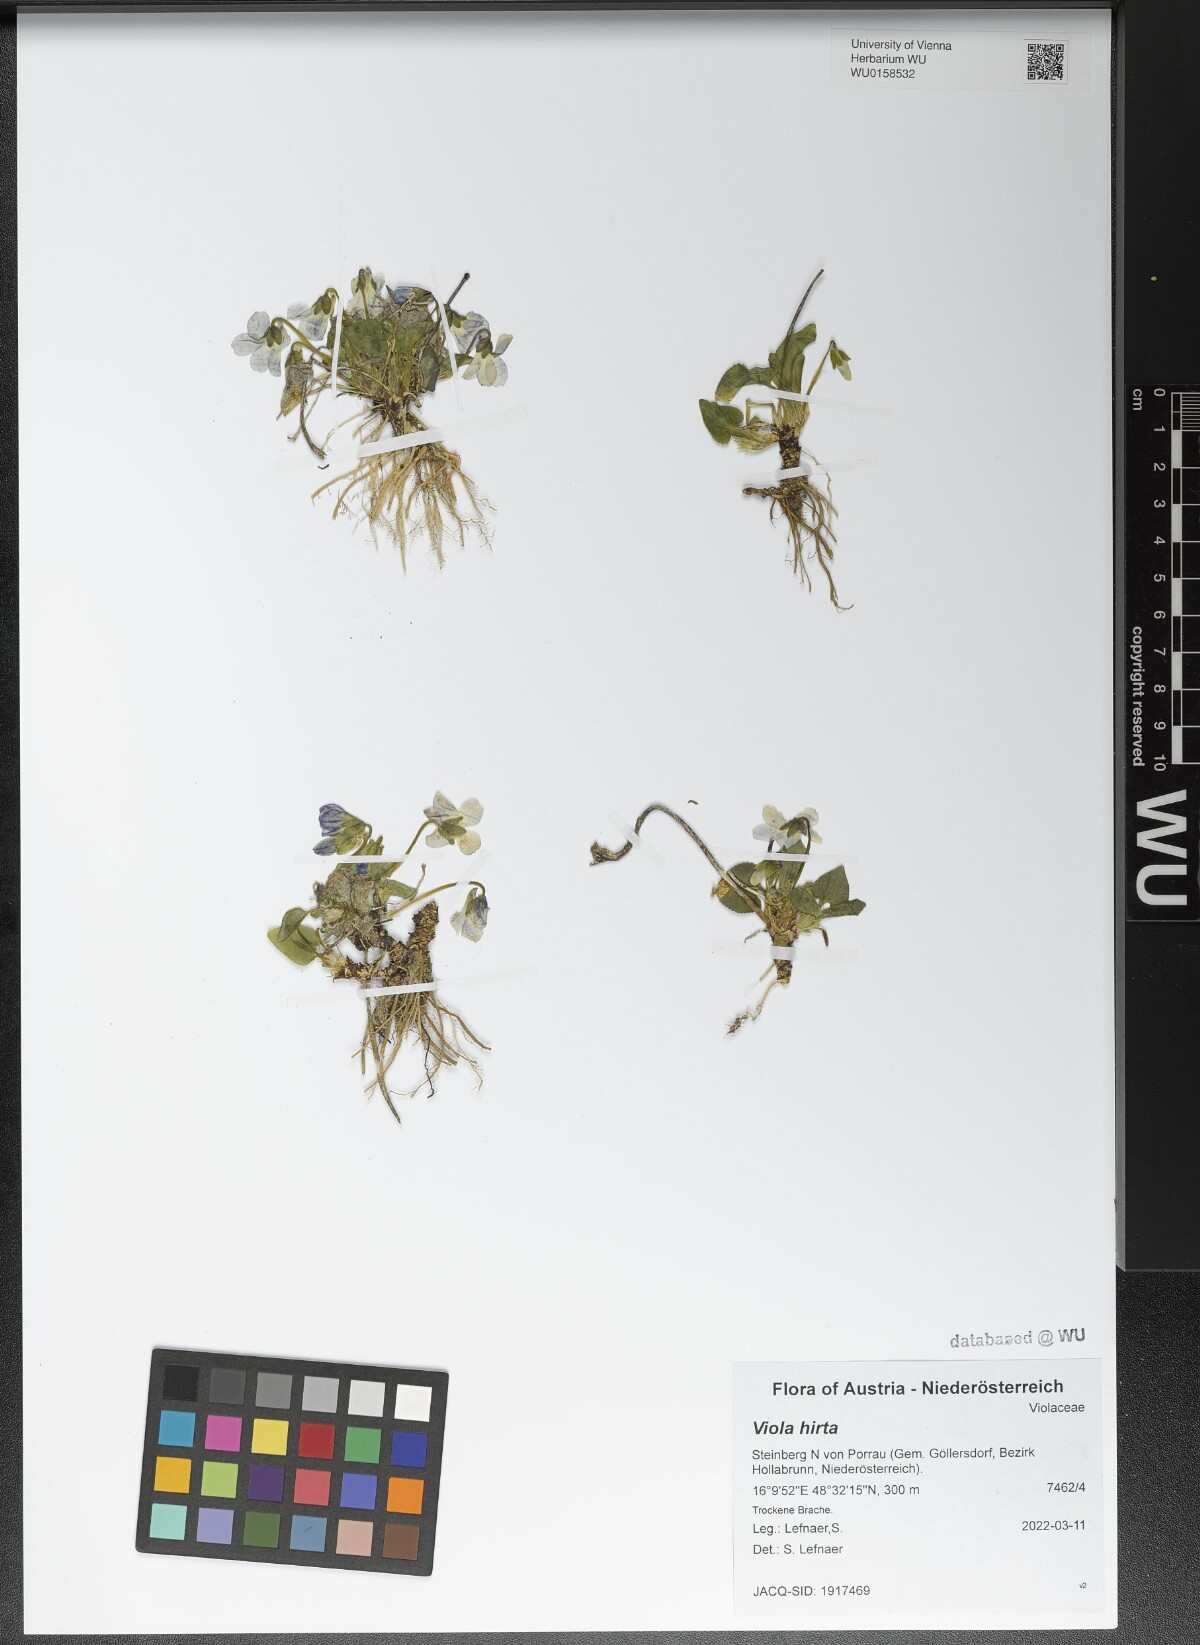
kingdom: Plantae
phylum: Tracheophyta
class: Magnoliopsida
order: Malpighiales
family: Violaceae
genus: Viola
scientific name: Viola hirta
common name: Hairy violet
